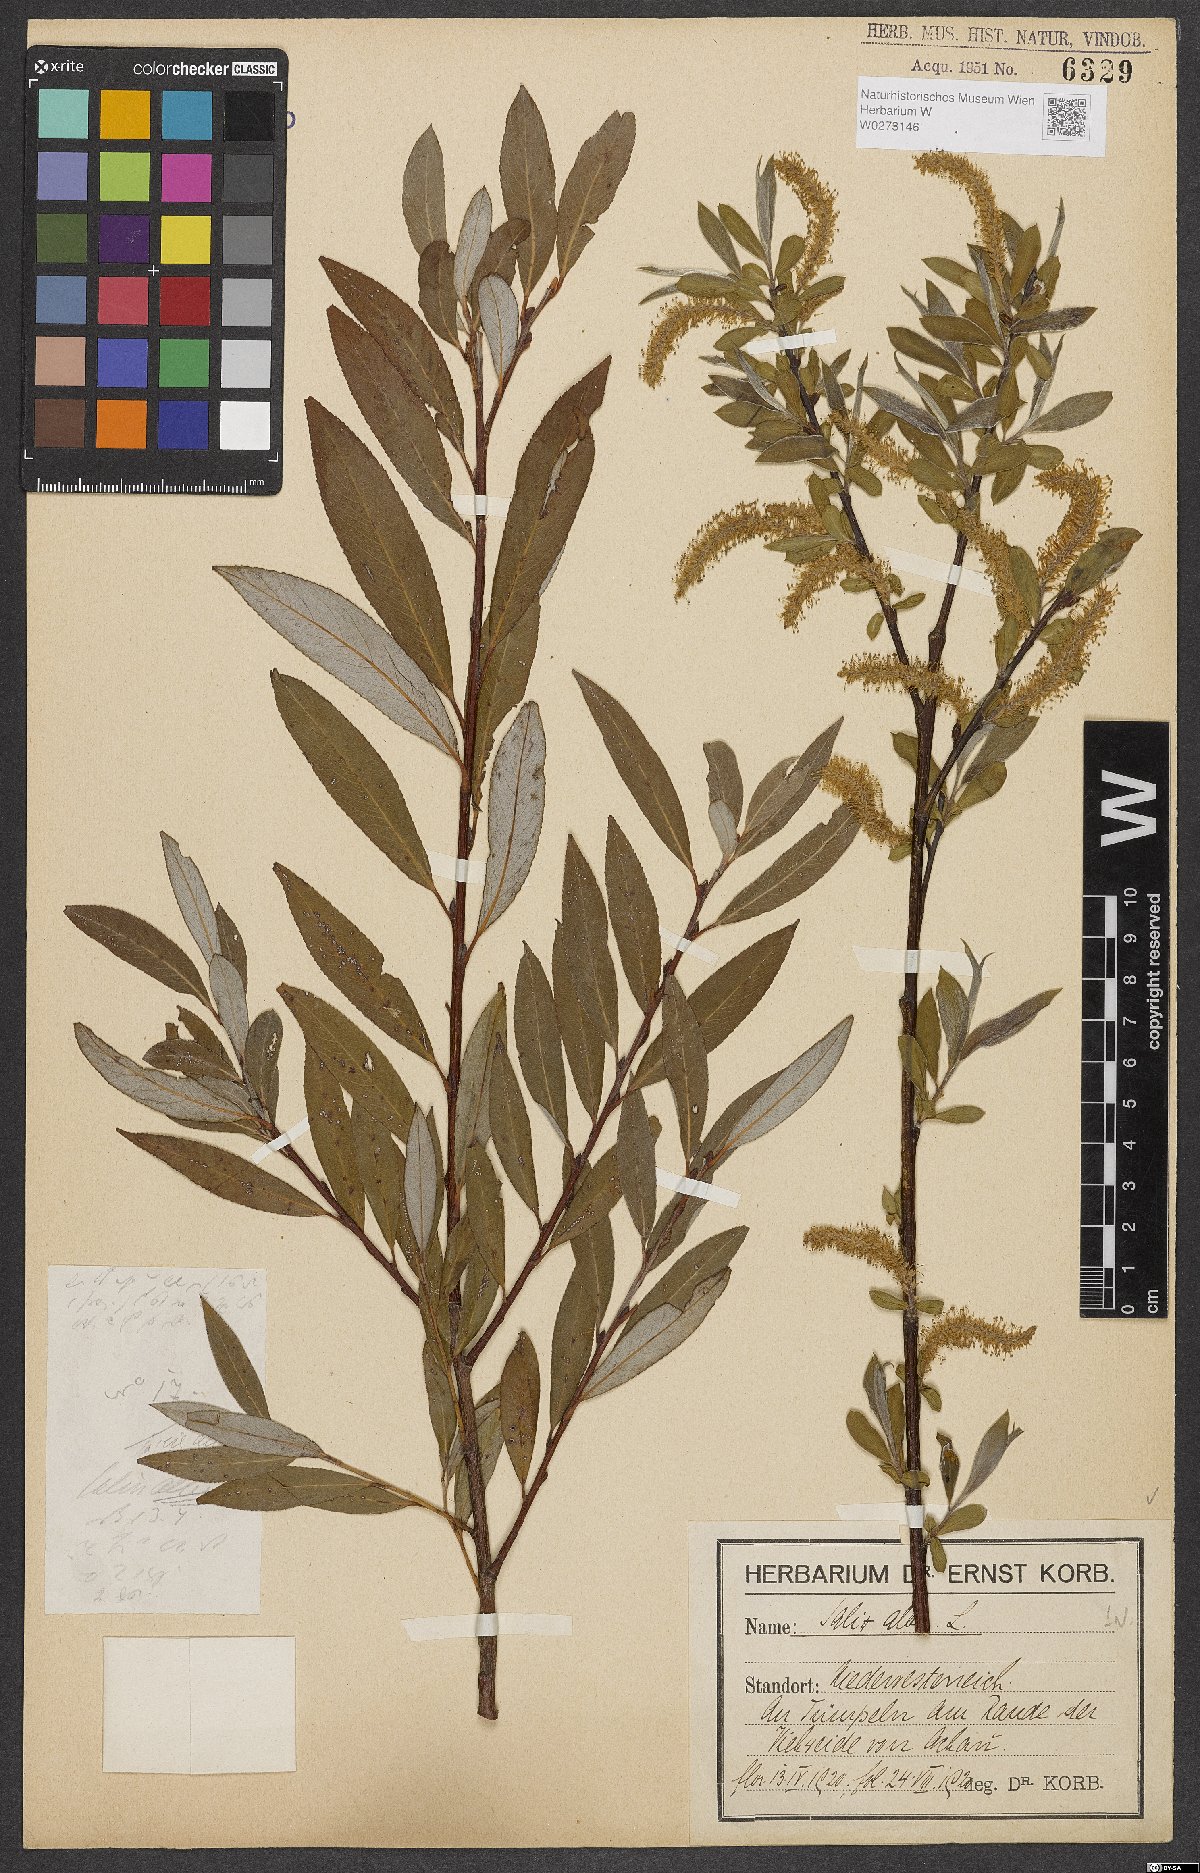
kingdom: Plantae
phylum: Tracheophyta
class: Magnoliopsida
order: Malpighiales
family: Salicaceae
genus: Salix
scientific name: Salix alba
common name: White willow
